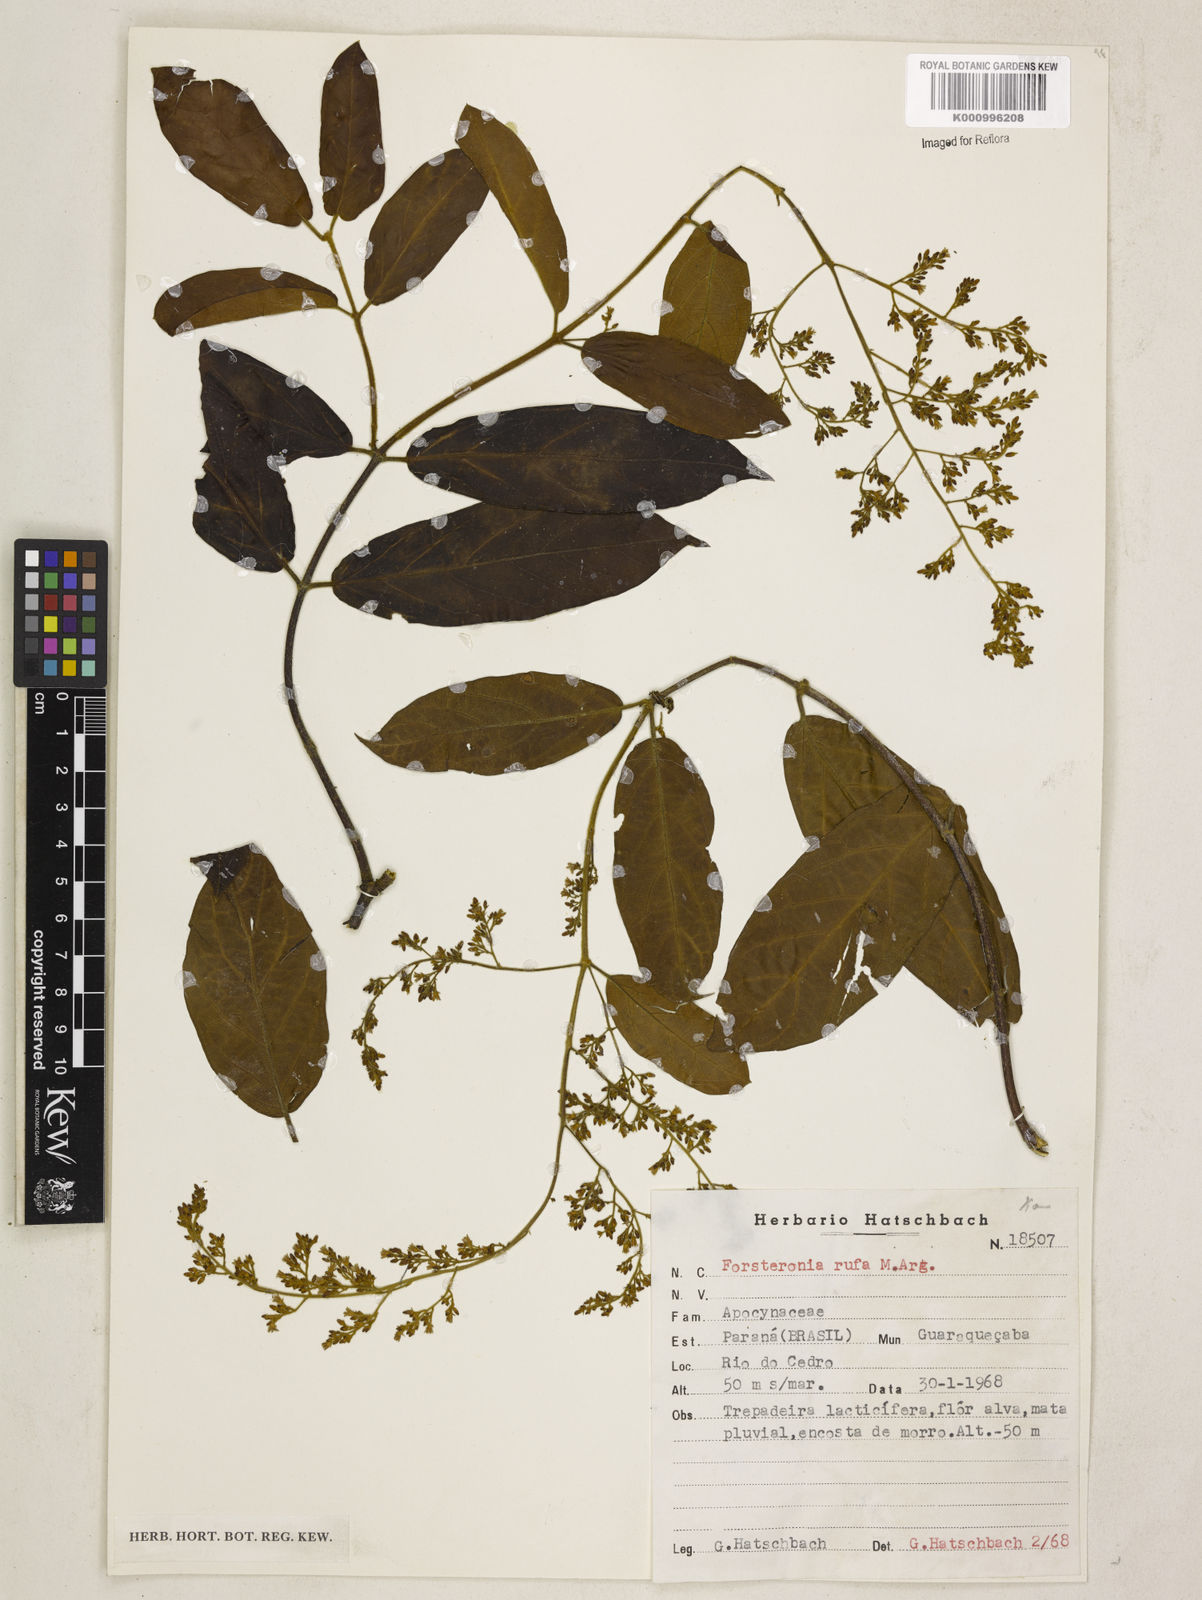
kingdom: Plantae
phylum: Tracheophyta
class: Magnoliopsida
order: Gentianales
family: Apocynaceae
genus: Forsteronia
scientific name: Forsteronia
